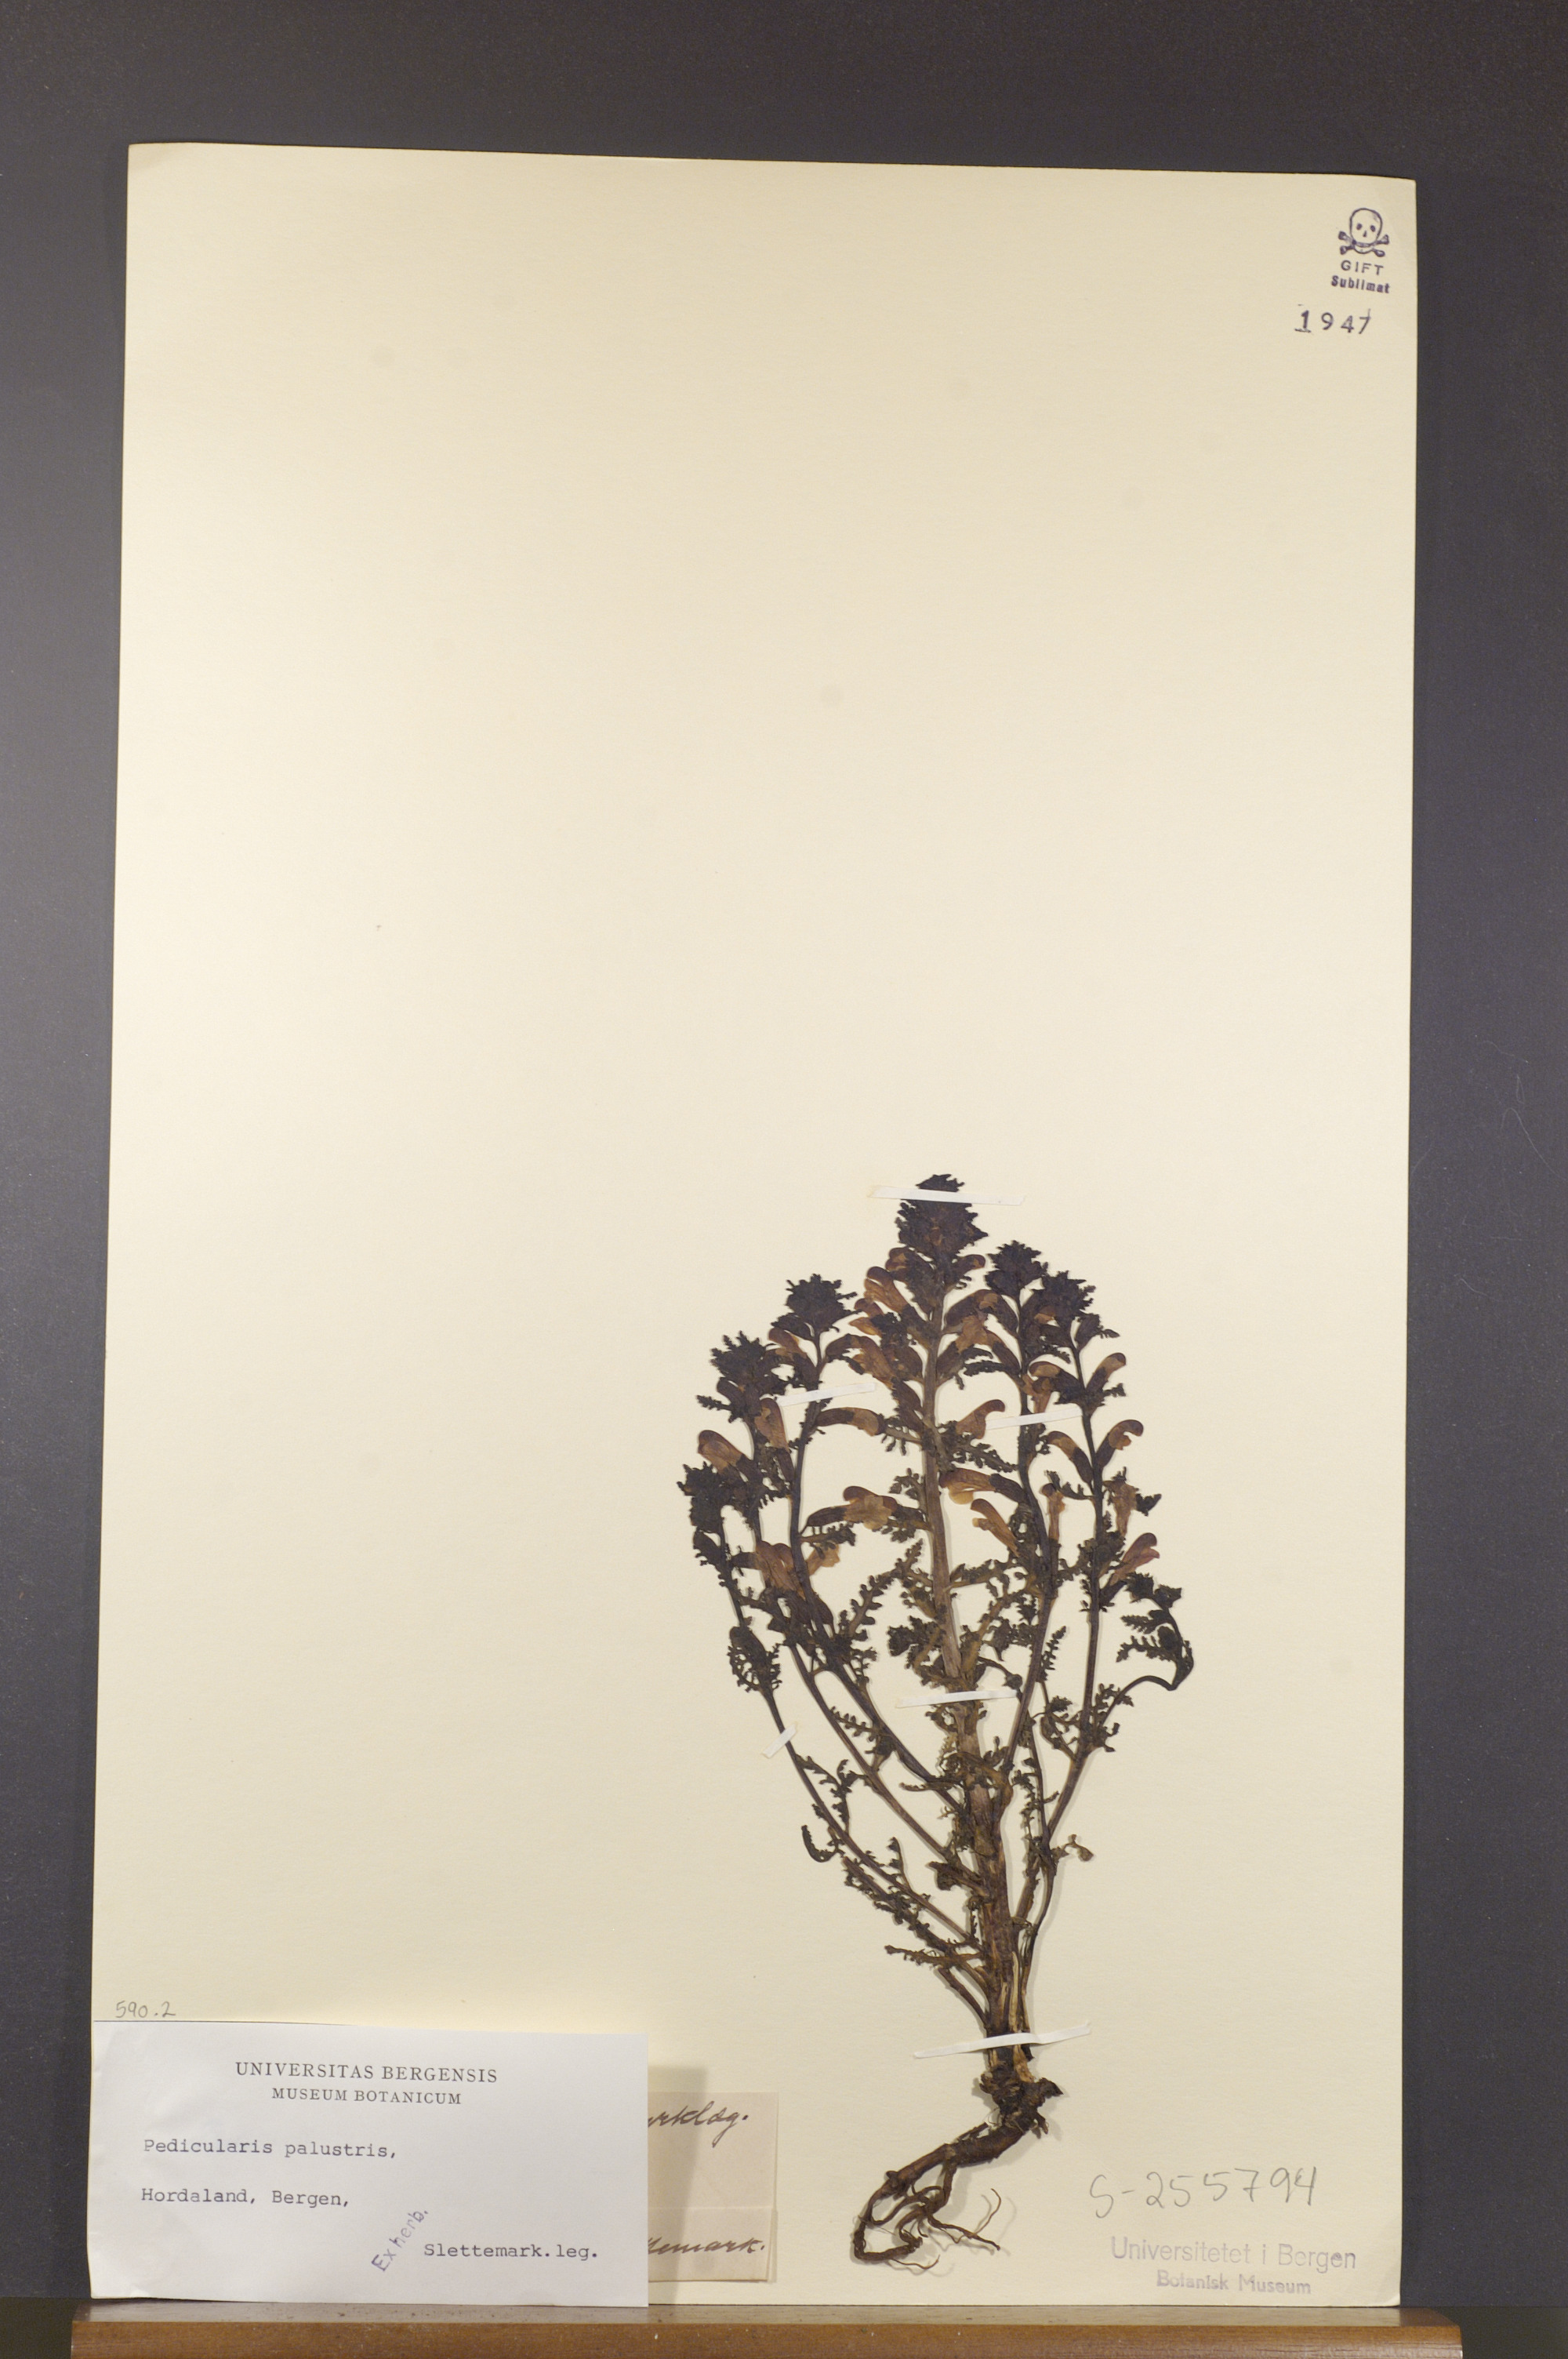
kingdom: Plantae
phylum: Tracheophyta
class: Magnoliopsida
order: Lamiales
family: Orobanchaceae
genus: Pedicularis
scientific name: Pedicularis palustris
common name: Marsh lousewort
